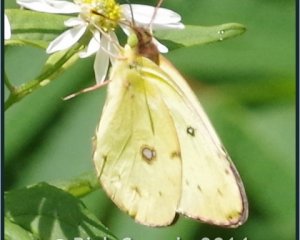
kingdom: Animalia
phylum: Arthropoda
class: Insecta
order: Lepidoptera
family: Pieridae
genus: Colias
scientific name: Colias philodice
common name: Clouded Sulphur
